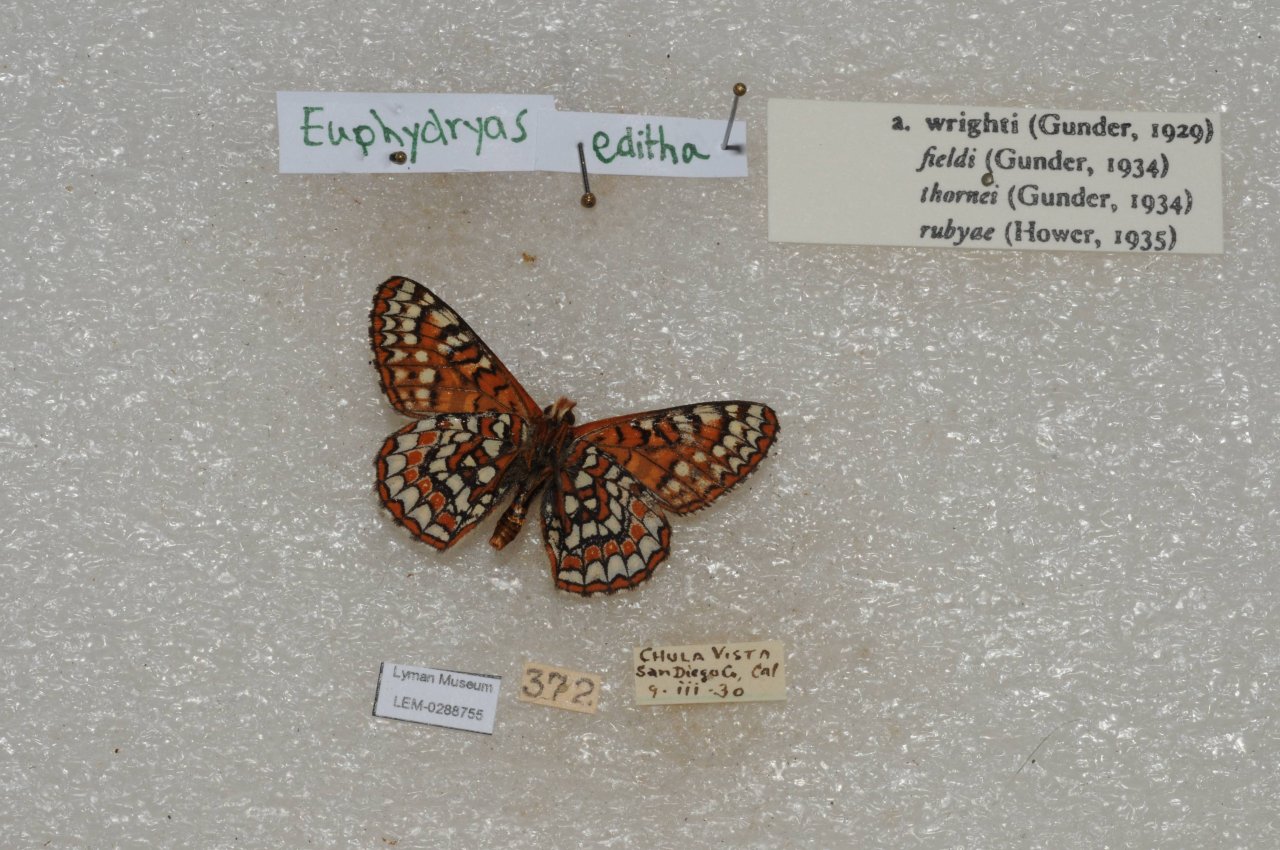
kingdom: Animalia
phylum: Arthropoda
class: Insecta
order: Lepidoptera
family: Nymphalidae
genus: Occidryas
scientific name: Occidryas editha
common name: Edith's Checkerspot
